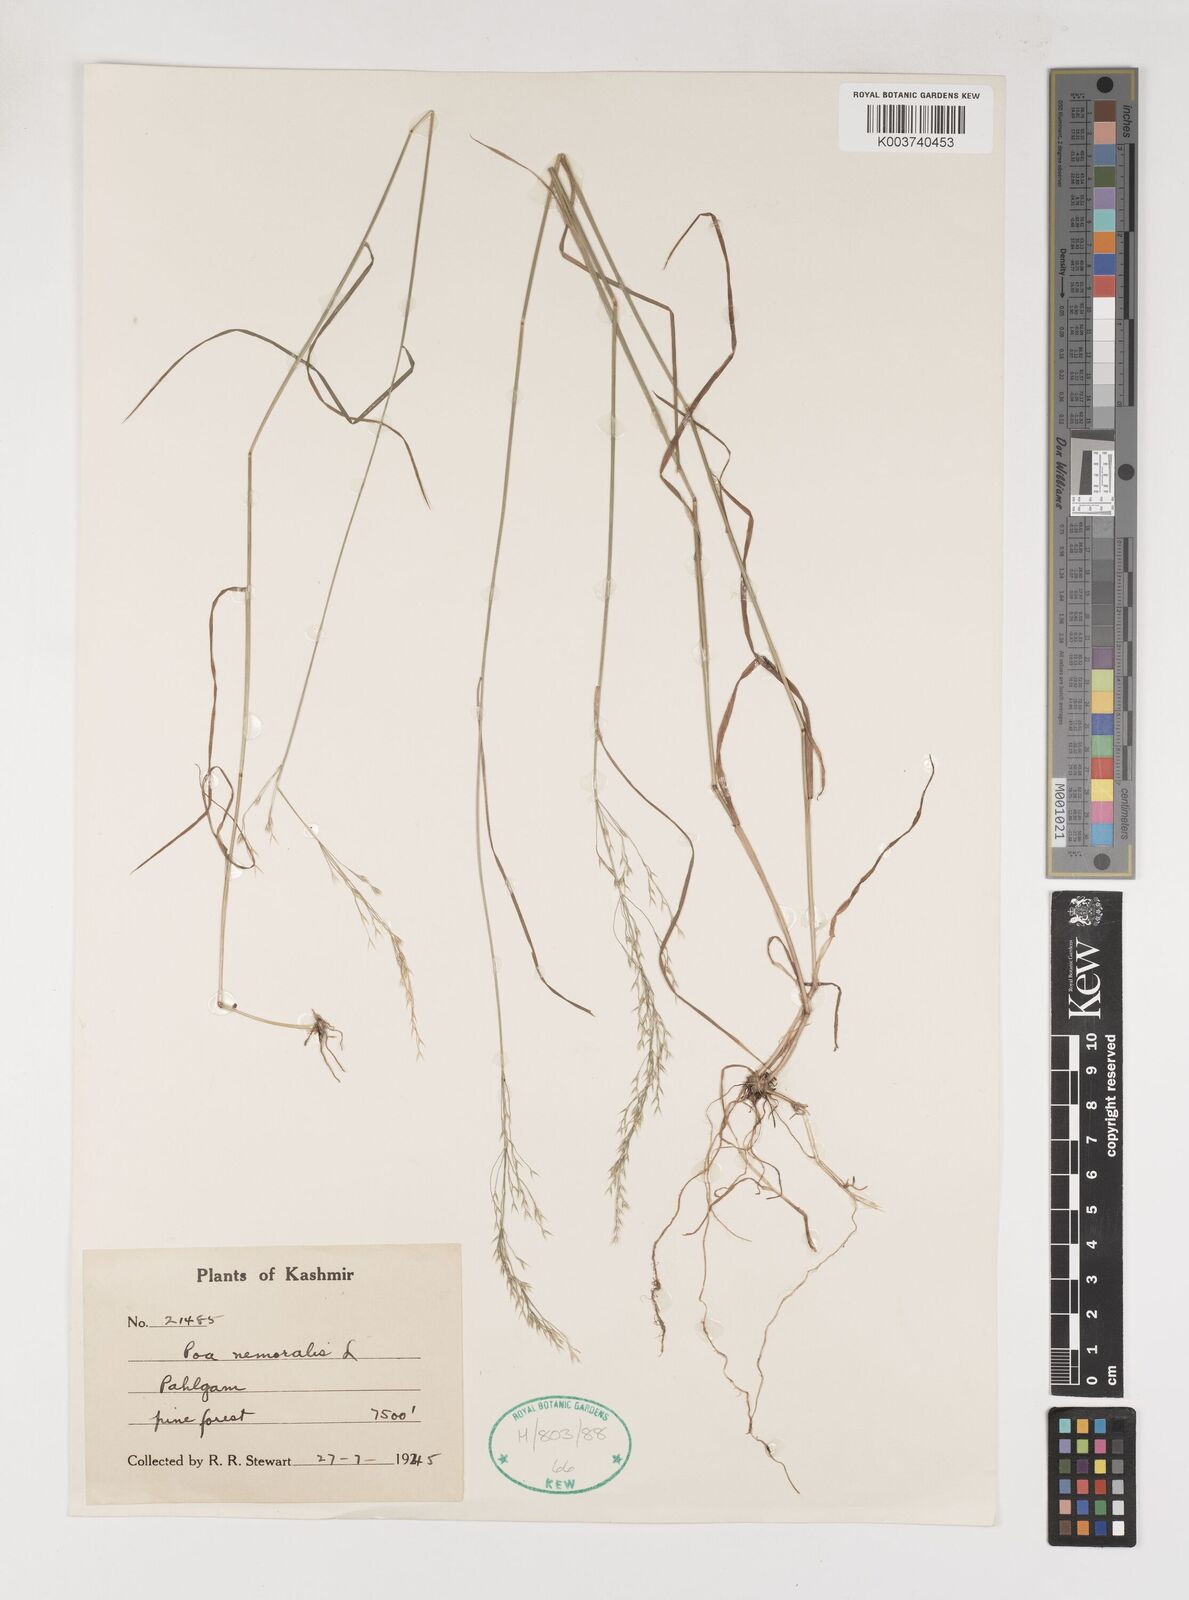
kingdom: Plantae
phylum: Tracheophyta
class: Liliopsida
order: Poales
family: Poaceae
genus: Poa
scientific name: Poa nemoralis
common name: Wood bluegrass
